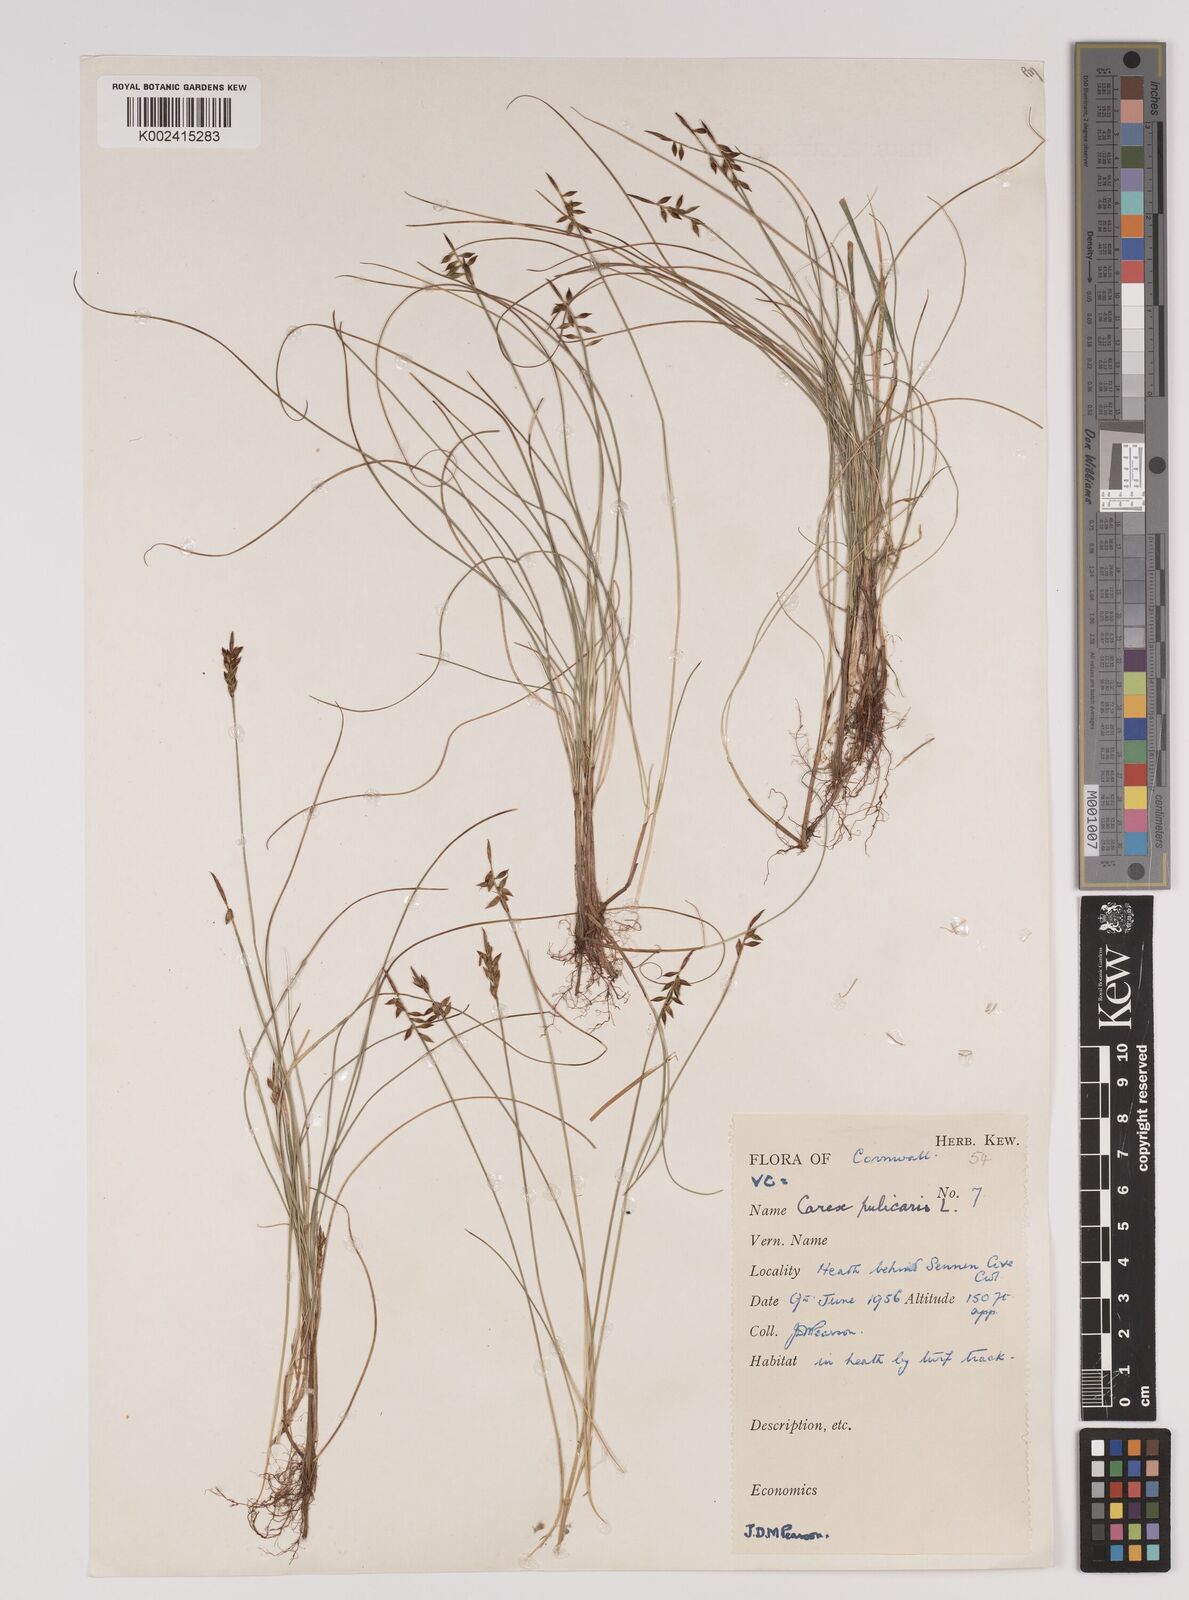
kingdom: Plantae
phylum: Tracheophyta
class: Liliopsida
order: Poales
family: Cyperaceae
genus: Carex
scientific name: Carex pulicaris
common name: Flea sedge
